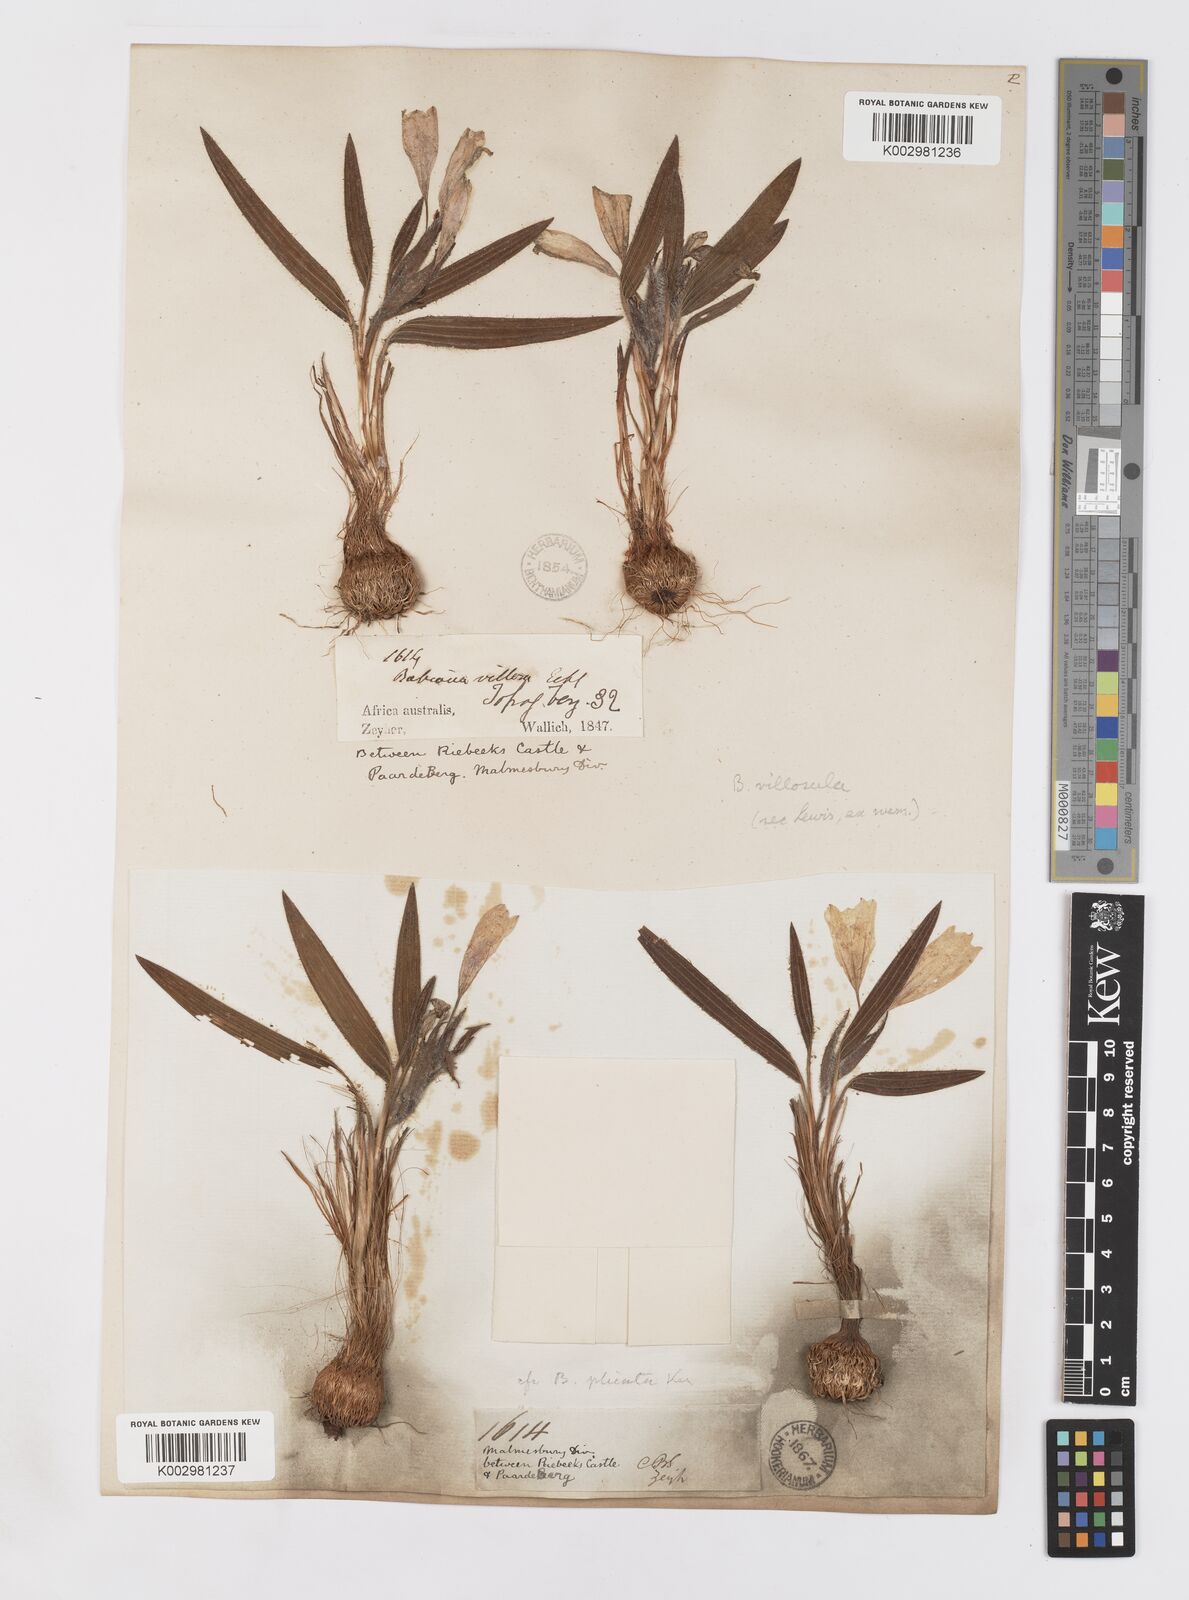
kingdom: Plantae
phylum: Tracheophyta
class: Liliopsida
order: Asparagales
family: Iridaceae
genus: Babiana
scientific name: Babiana villosula
